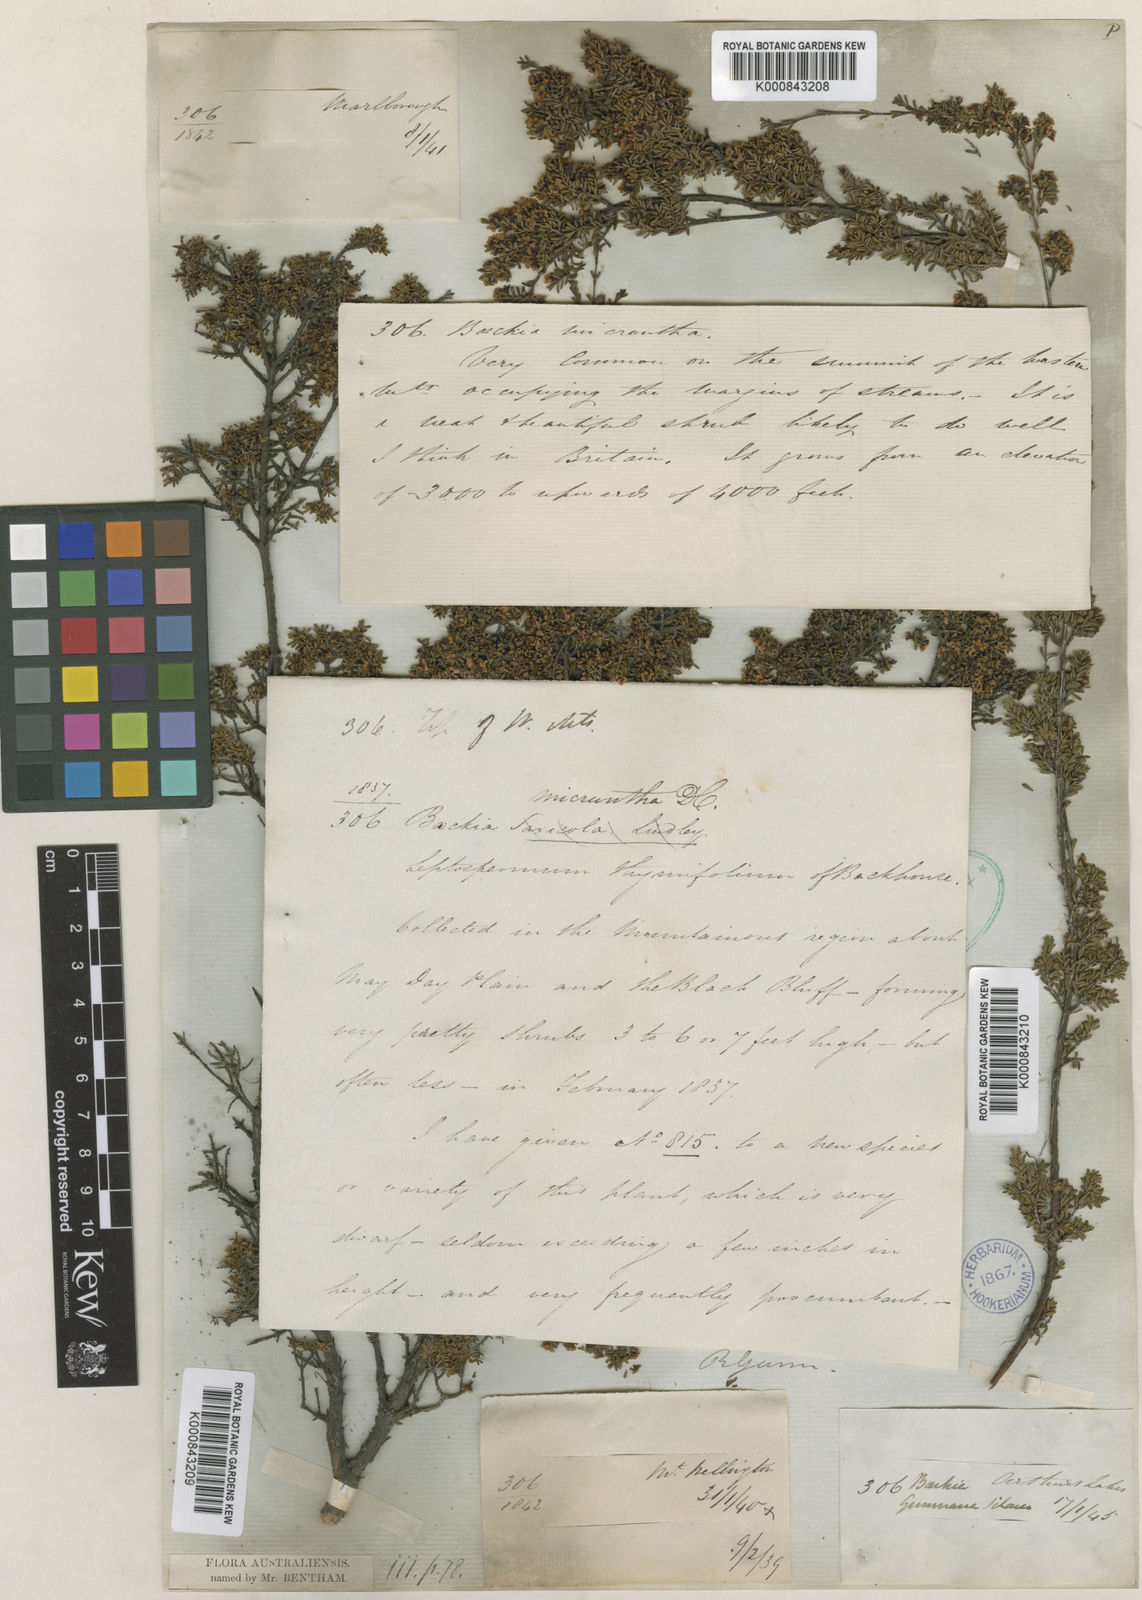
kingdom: Plantae
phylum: Tracheophyta
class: Magnoliopsida
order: Myrtales
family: Myrtaceae
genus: Baeckea
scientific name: Baeckea gunniana
